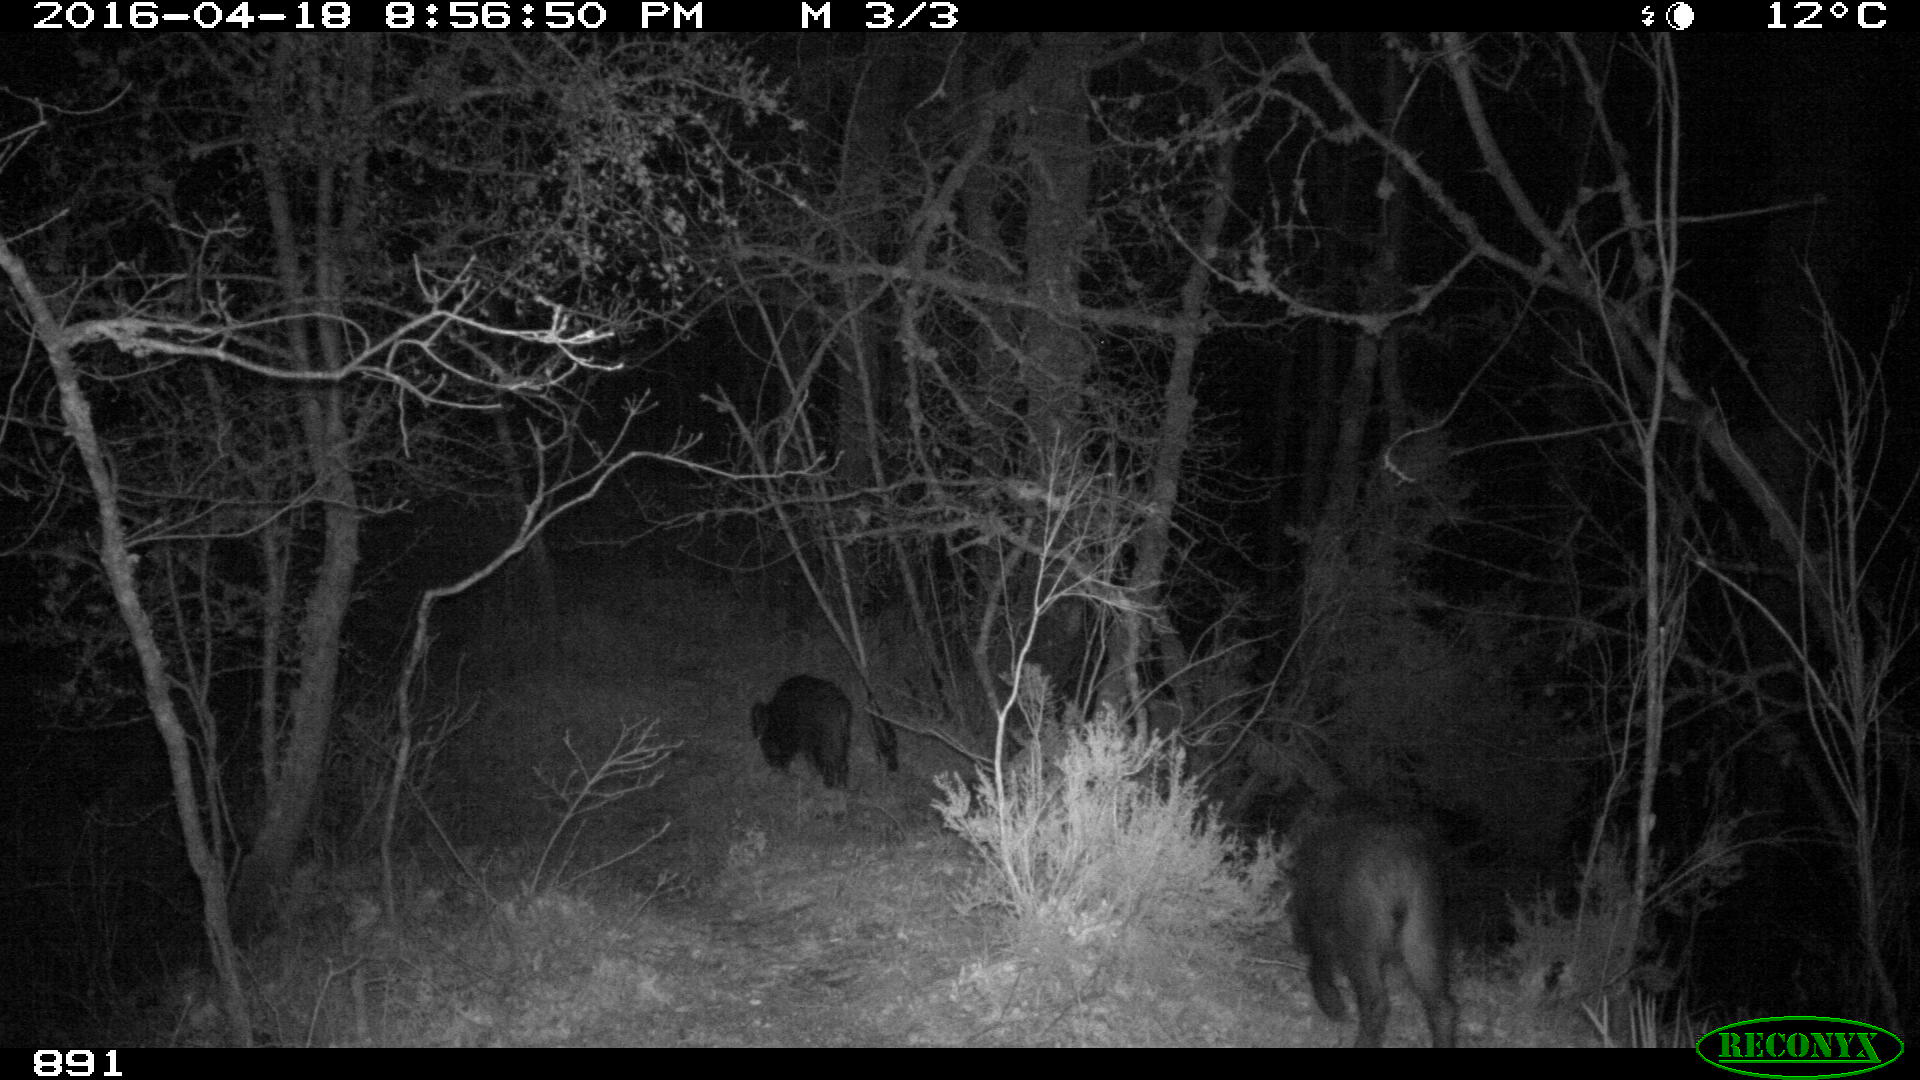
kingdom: Animalia
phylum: Chordata
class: Mammalia
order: Artiodactyla
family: Suidae
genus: Sus
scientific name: Sus scrofa
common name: Wild boar
